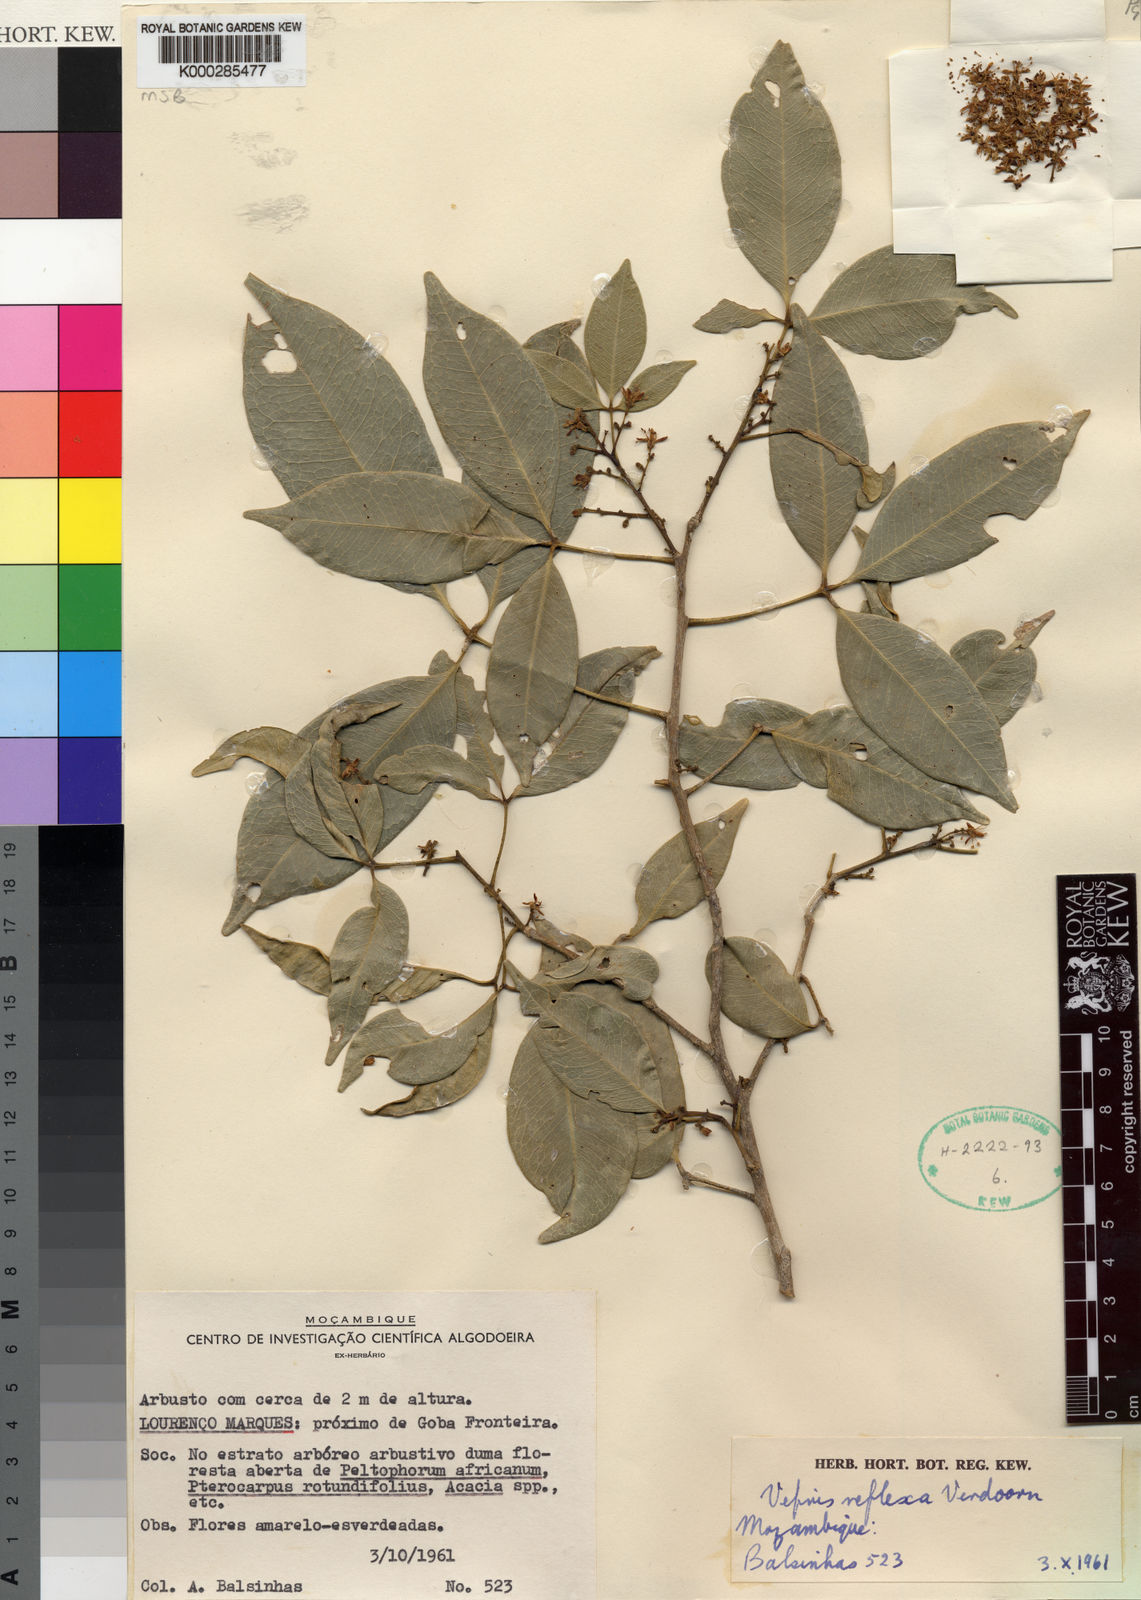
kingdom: Plantae
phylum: Tracheophyta
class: Magnoliopsida
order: Sapindales
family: Rutaceae
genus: Vepris
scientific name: Vepris reflexa
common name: Rock white ironwood
